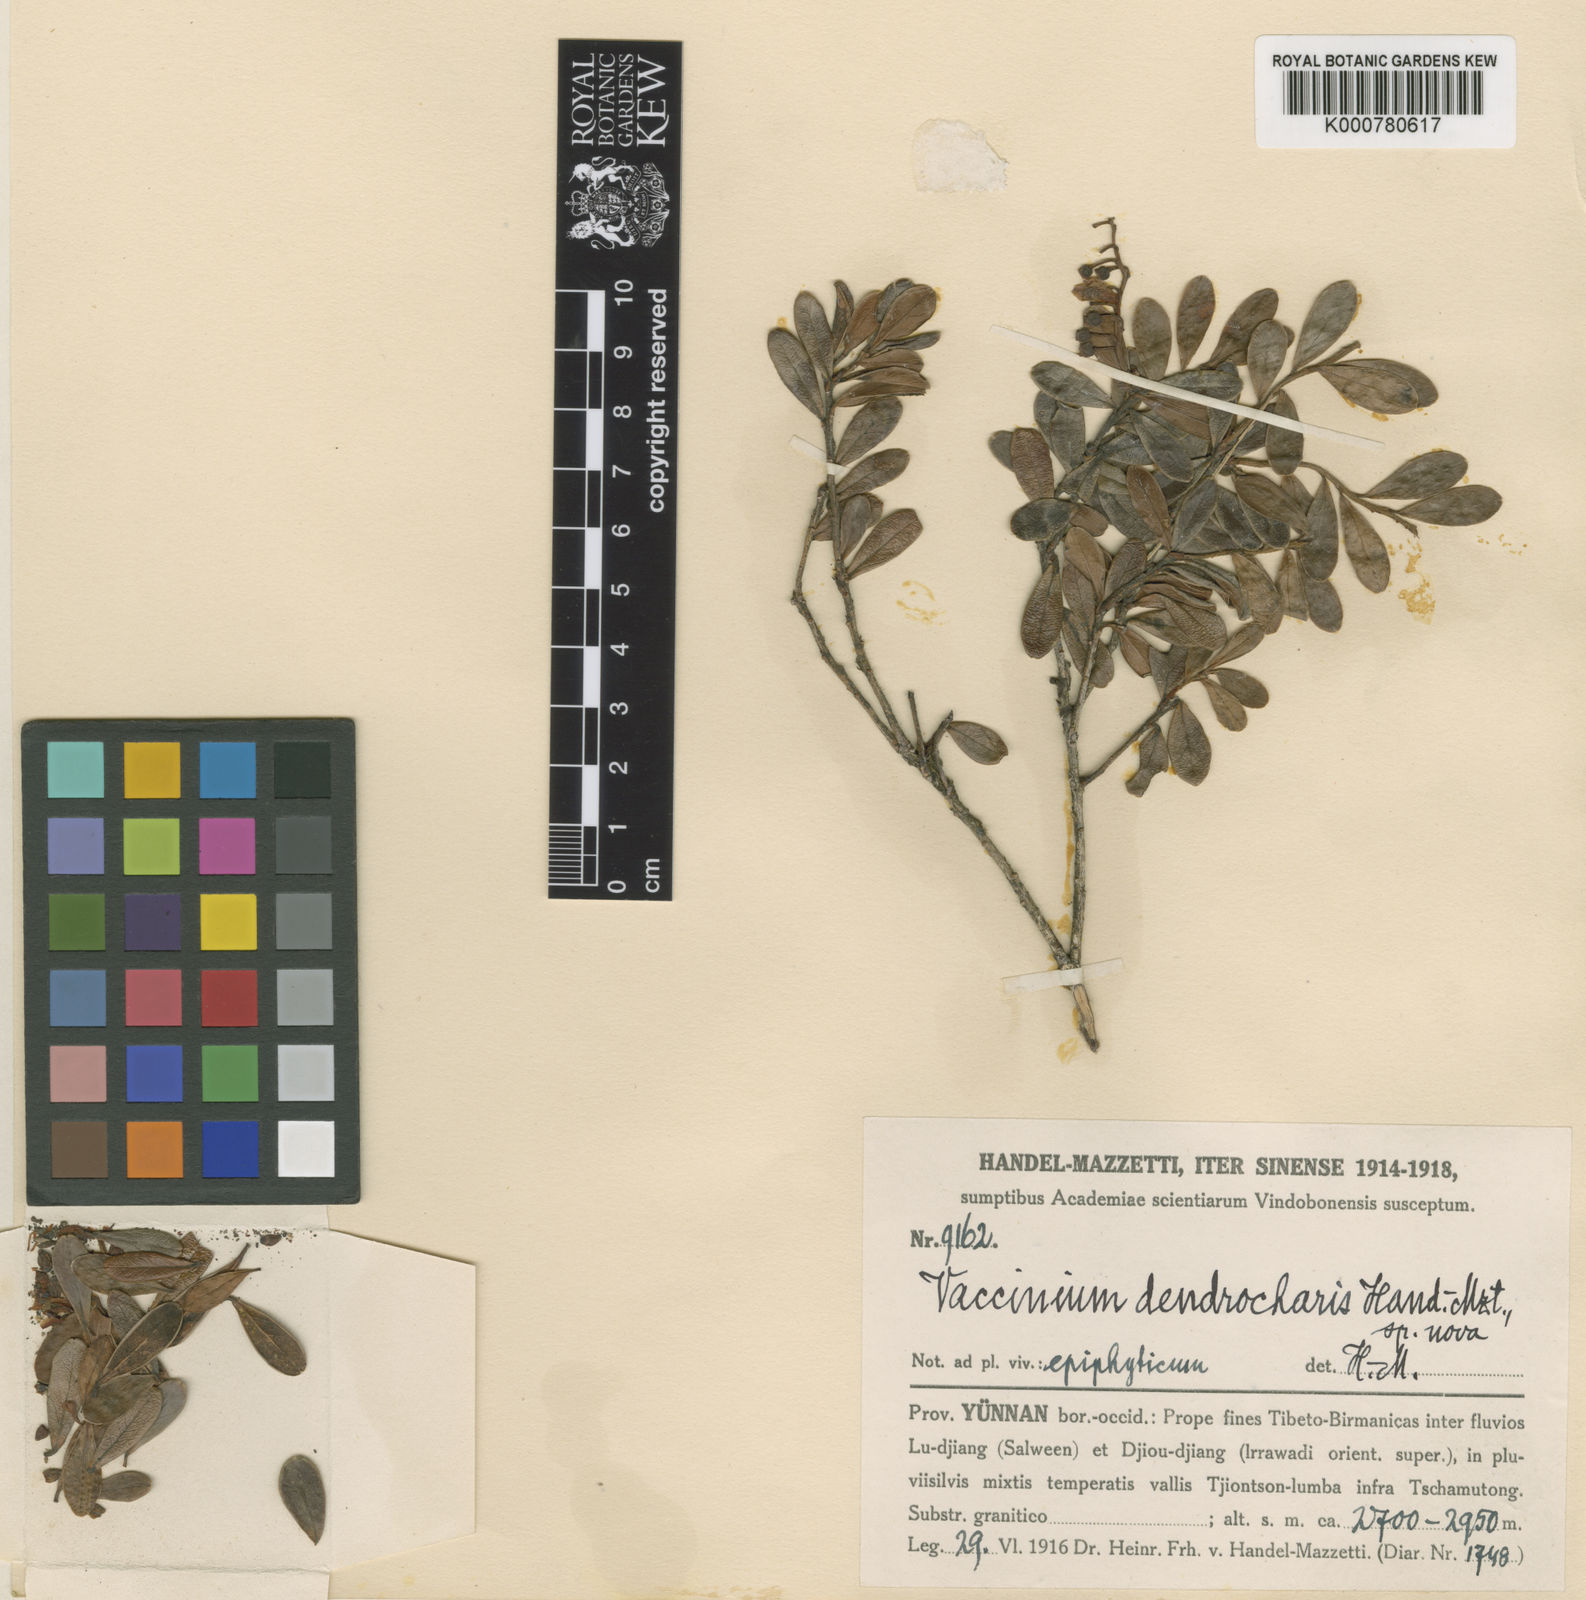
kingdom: Plantae
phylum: Tracheophyta
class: Magnoliopsida
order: Ericales
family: Ericaceae
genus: Vaccinium
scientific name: Vaccinium dendrocharis
